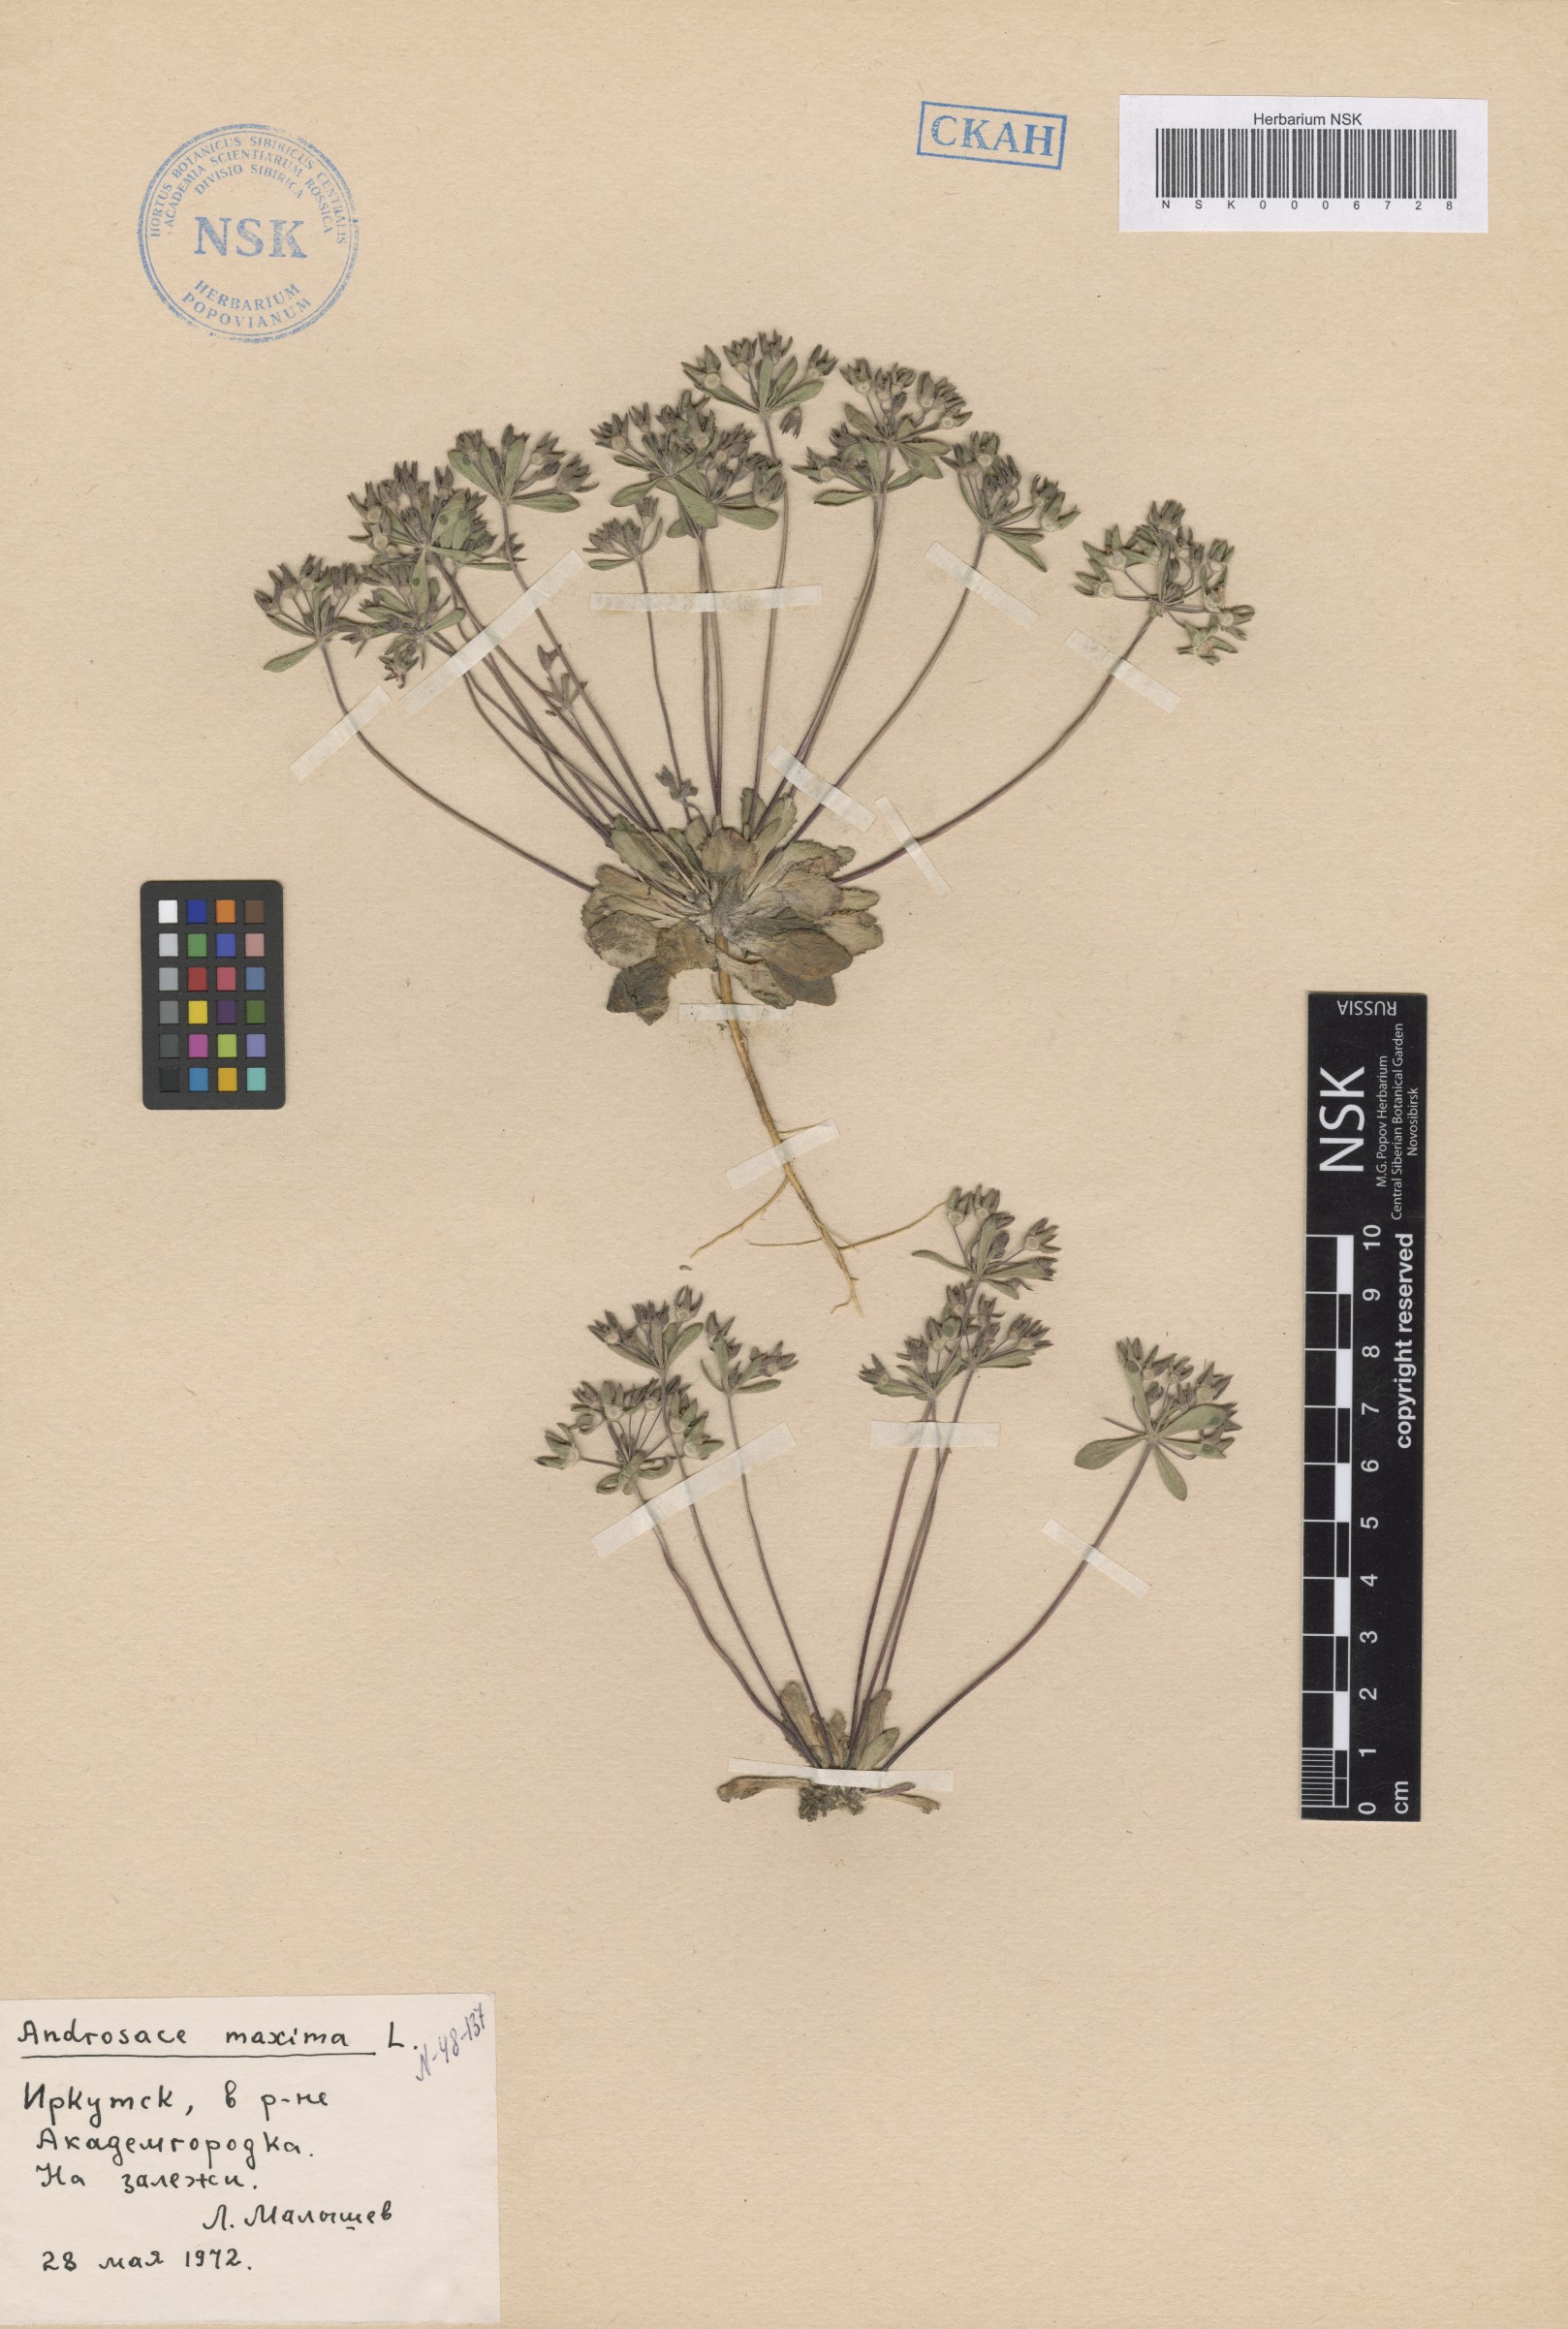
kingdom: Plantae
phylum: Tracheophyta
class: Magnoliopsida
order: Ericales
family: Primulaceae
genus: Androsace
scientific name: Androsace maxima
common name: Annual androsace
